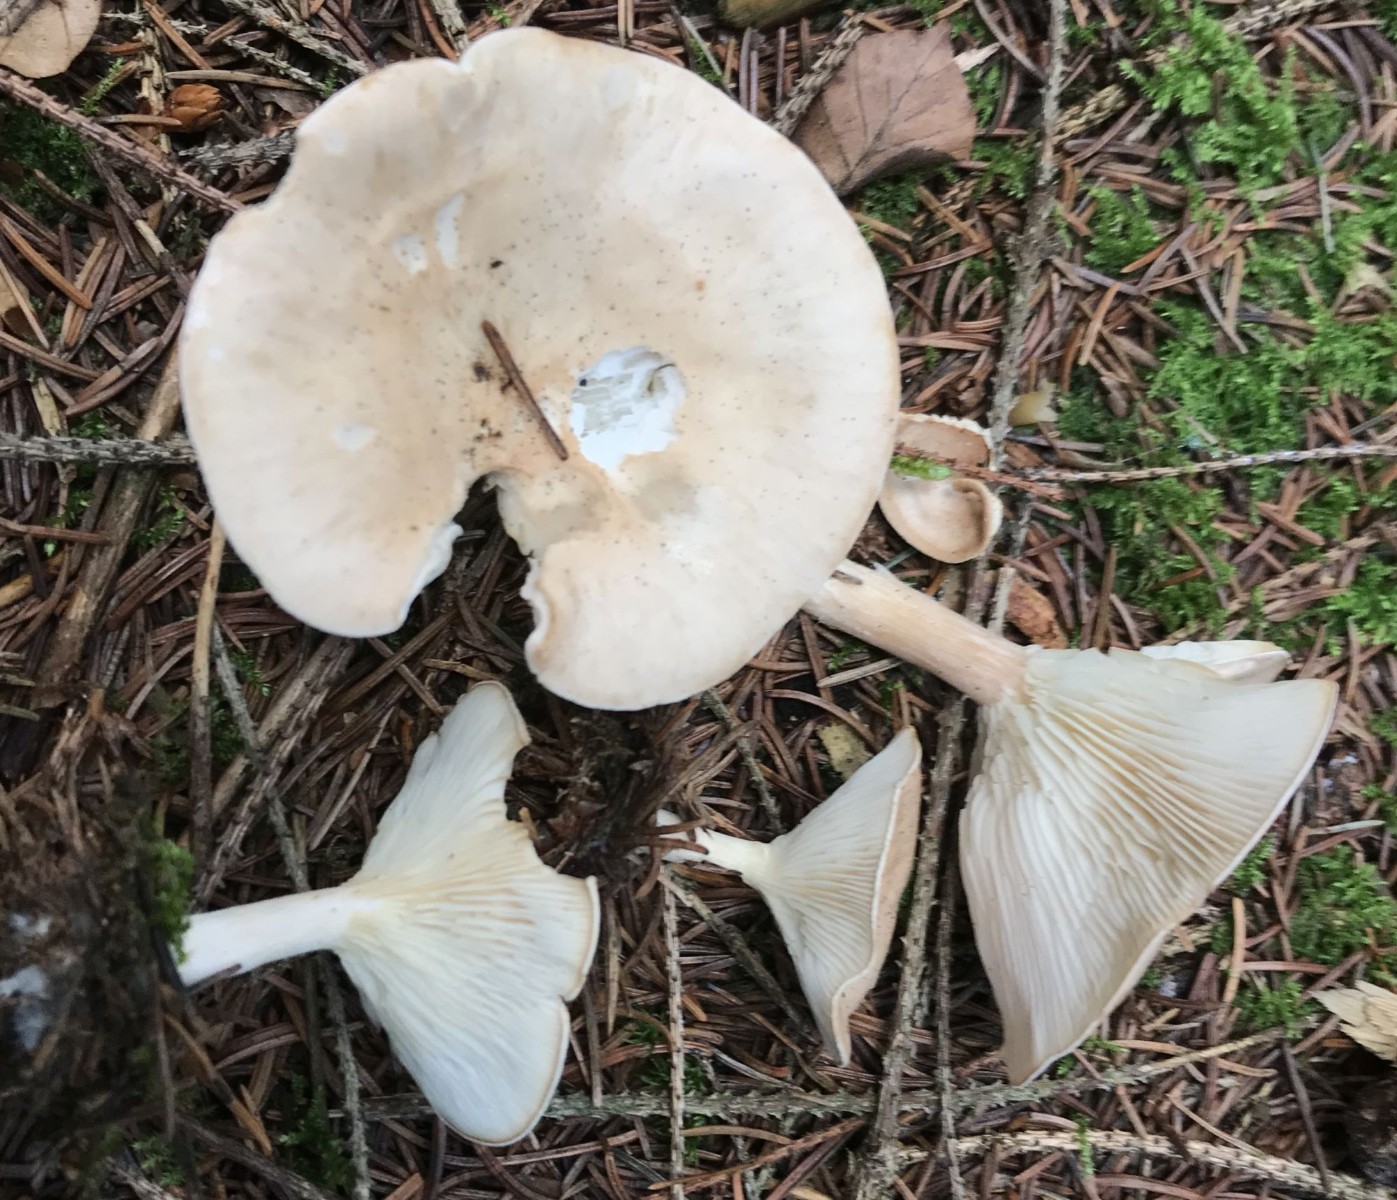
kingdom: Fungi
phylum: Basidiomycota
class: Agaricomycetes
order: Agaricales
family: Tricholomataceae
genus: Infundibulicybe
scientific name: Infundibulicybe gibba
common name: almindelig tragthat
